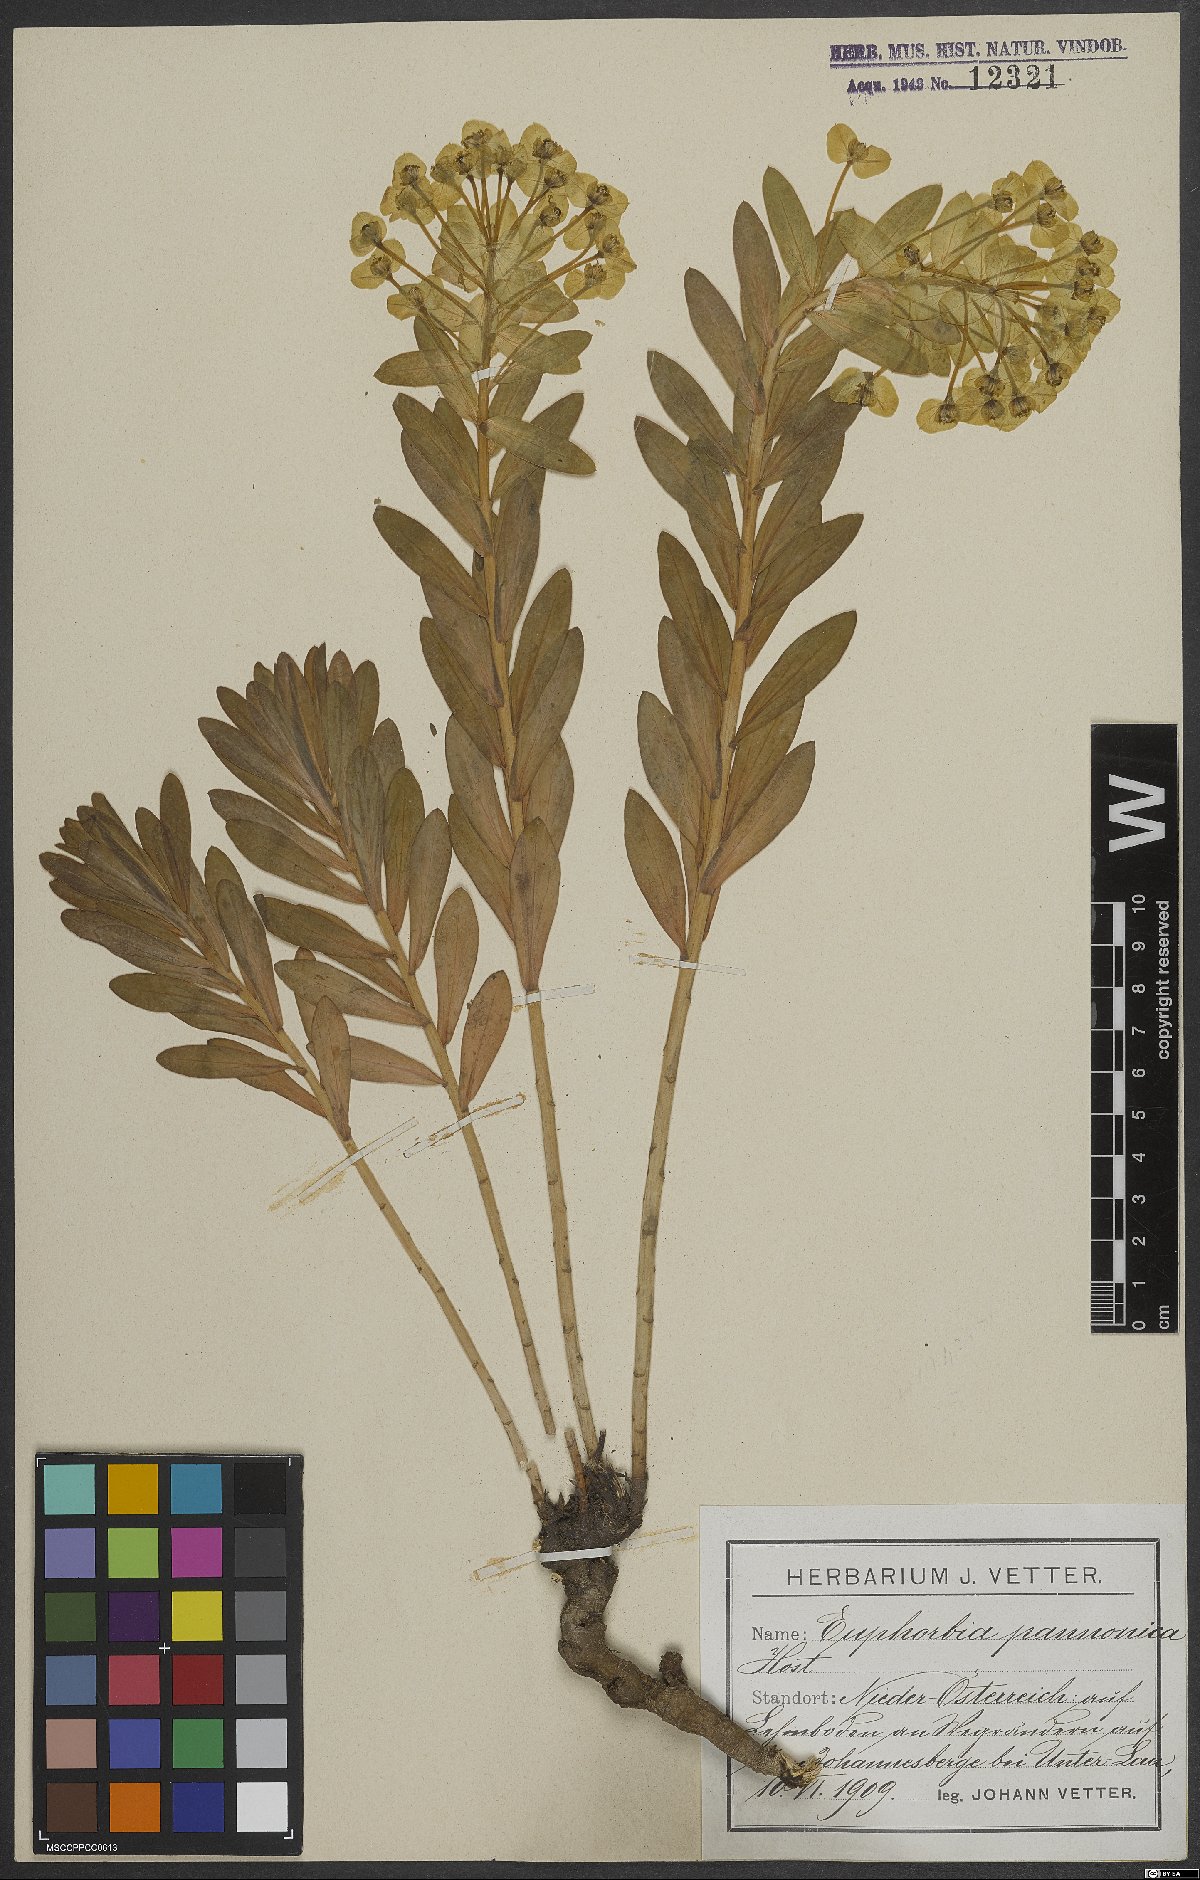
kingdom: Plantae
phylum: Tracheophyta
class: Magnoliopsida
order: Malpighiales
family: Euphorbiaceae
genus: Euphorbia
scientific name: Euphorbia pannonica
